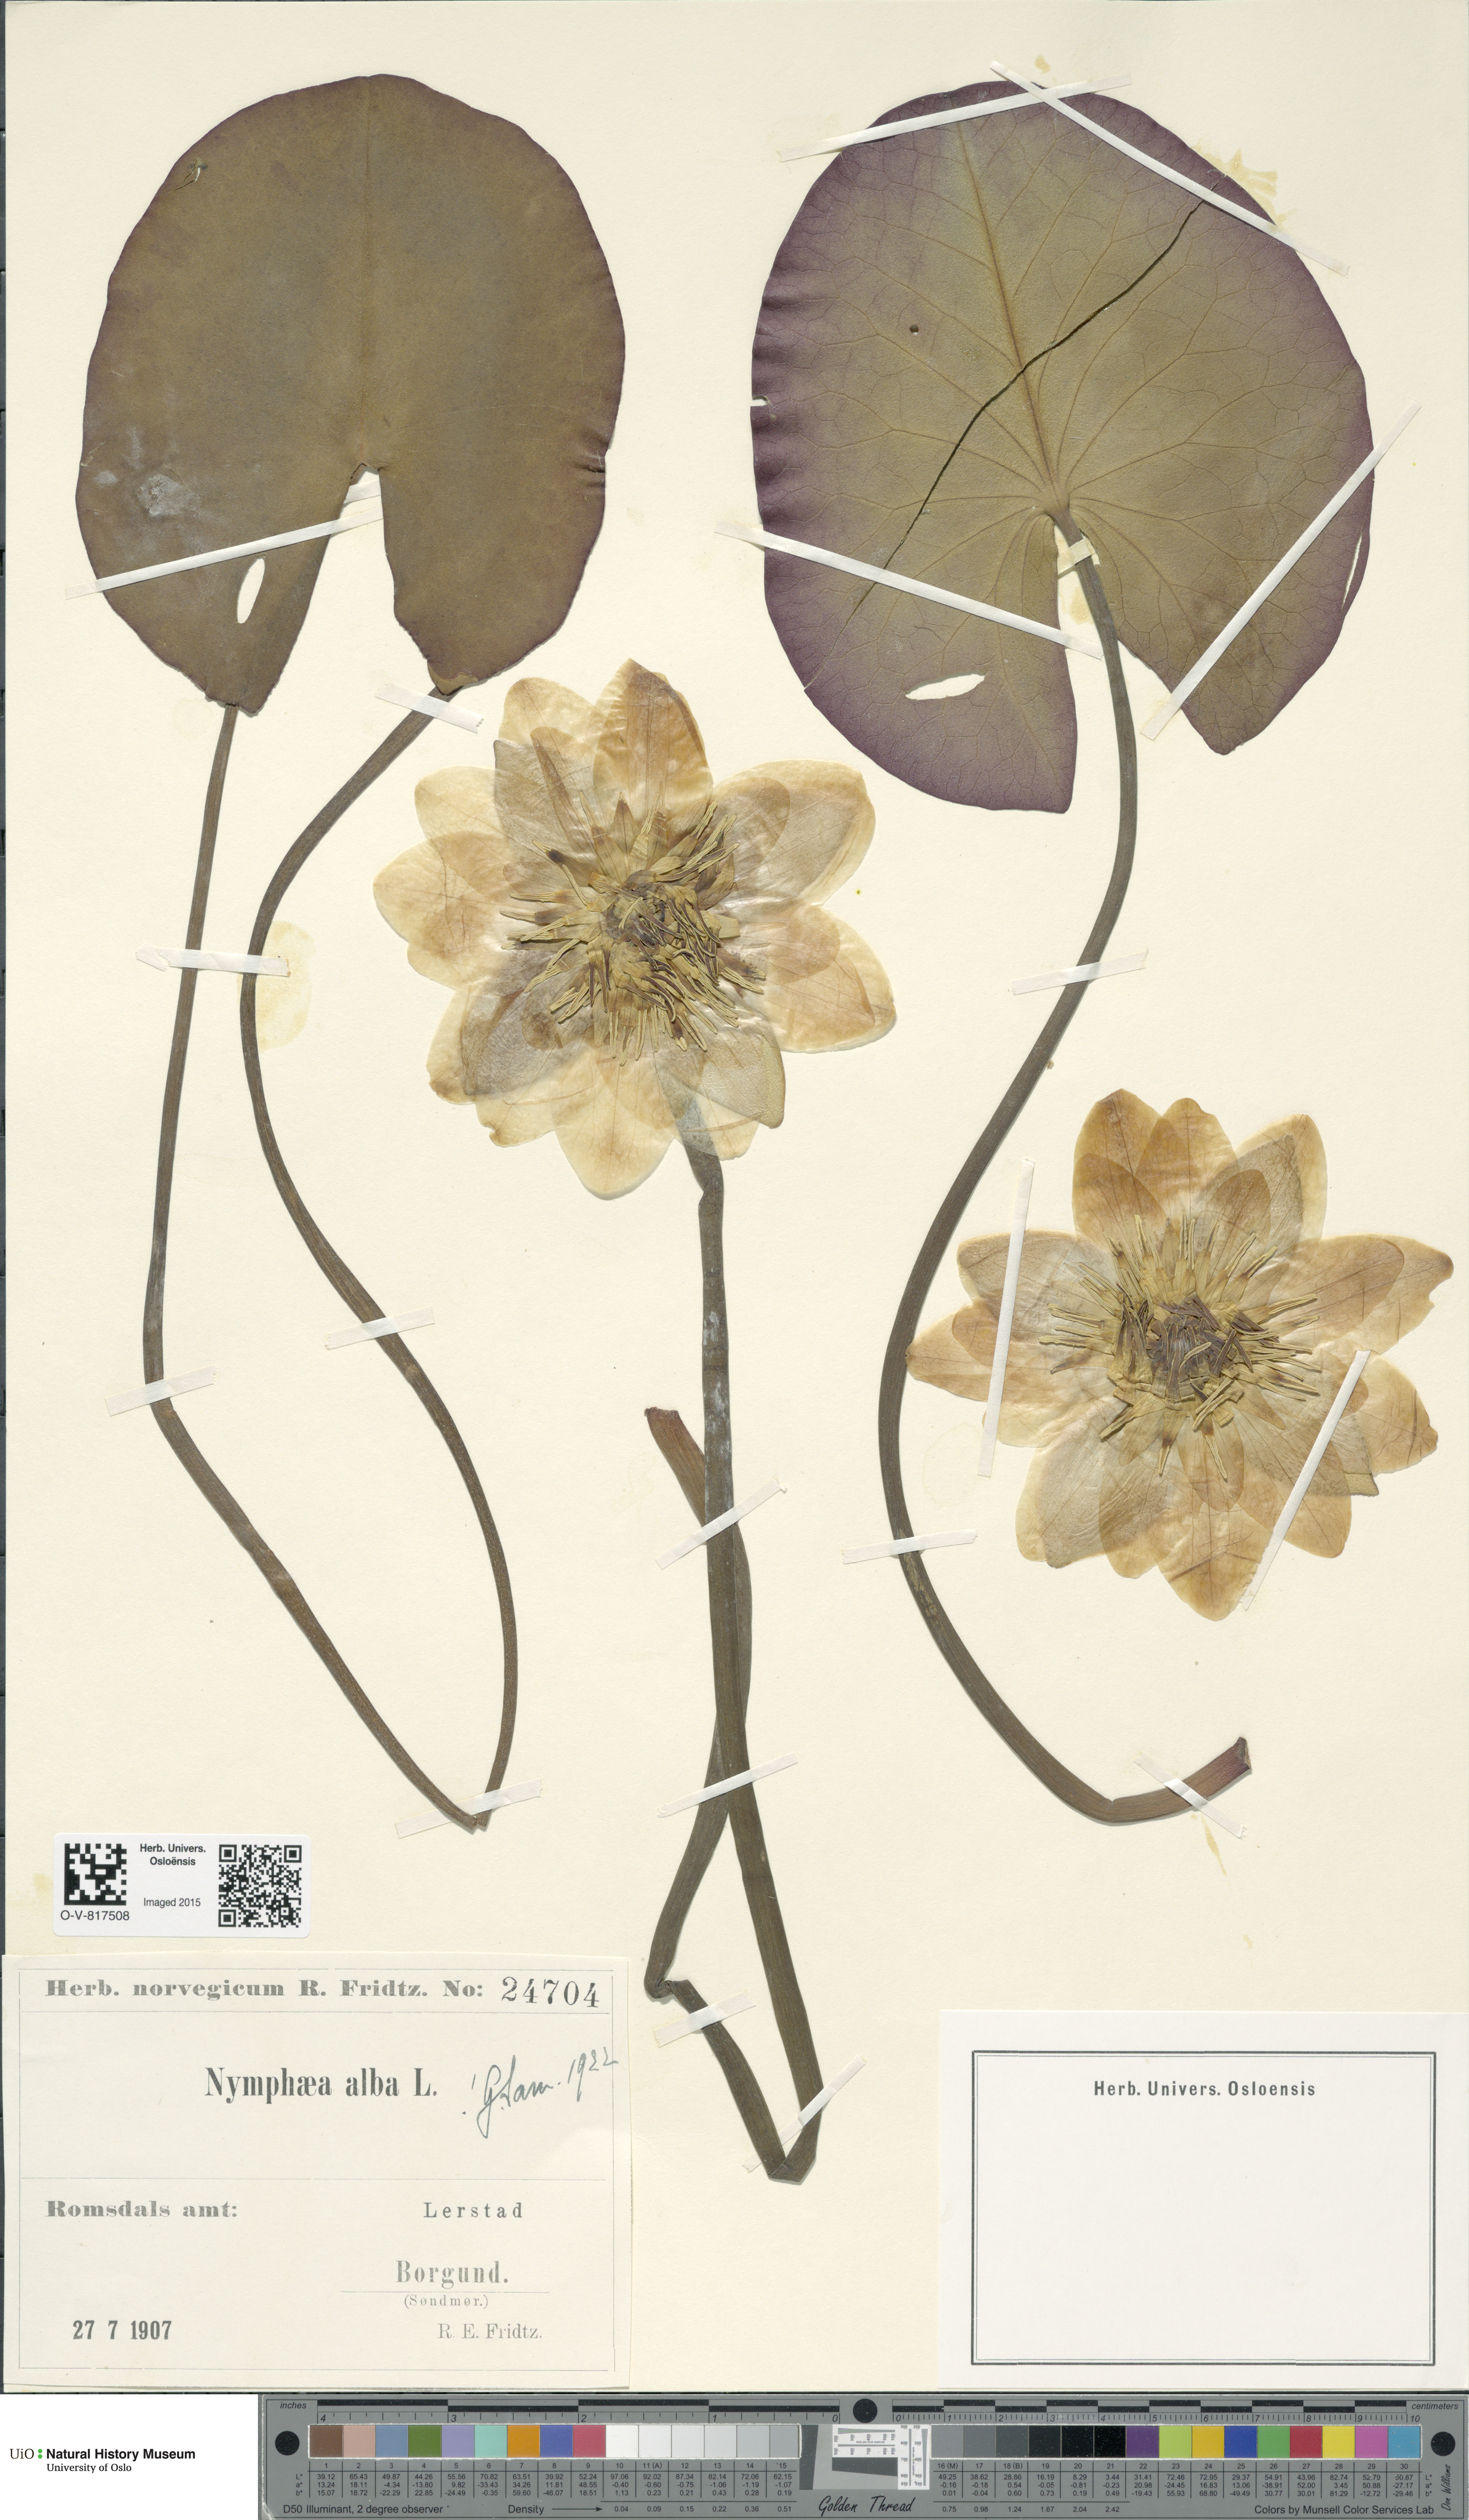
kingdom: Plantae
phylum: Tracheophyta
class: Magnoliopsida
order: Nymphaeales
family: Nymphaeaceae
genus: Nymphaea
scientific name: Nymphaea alba
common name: White water-lily
